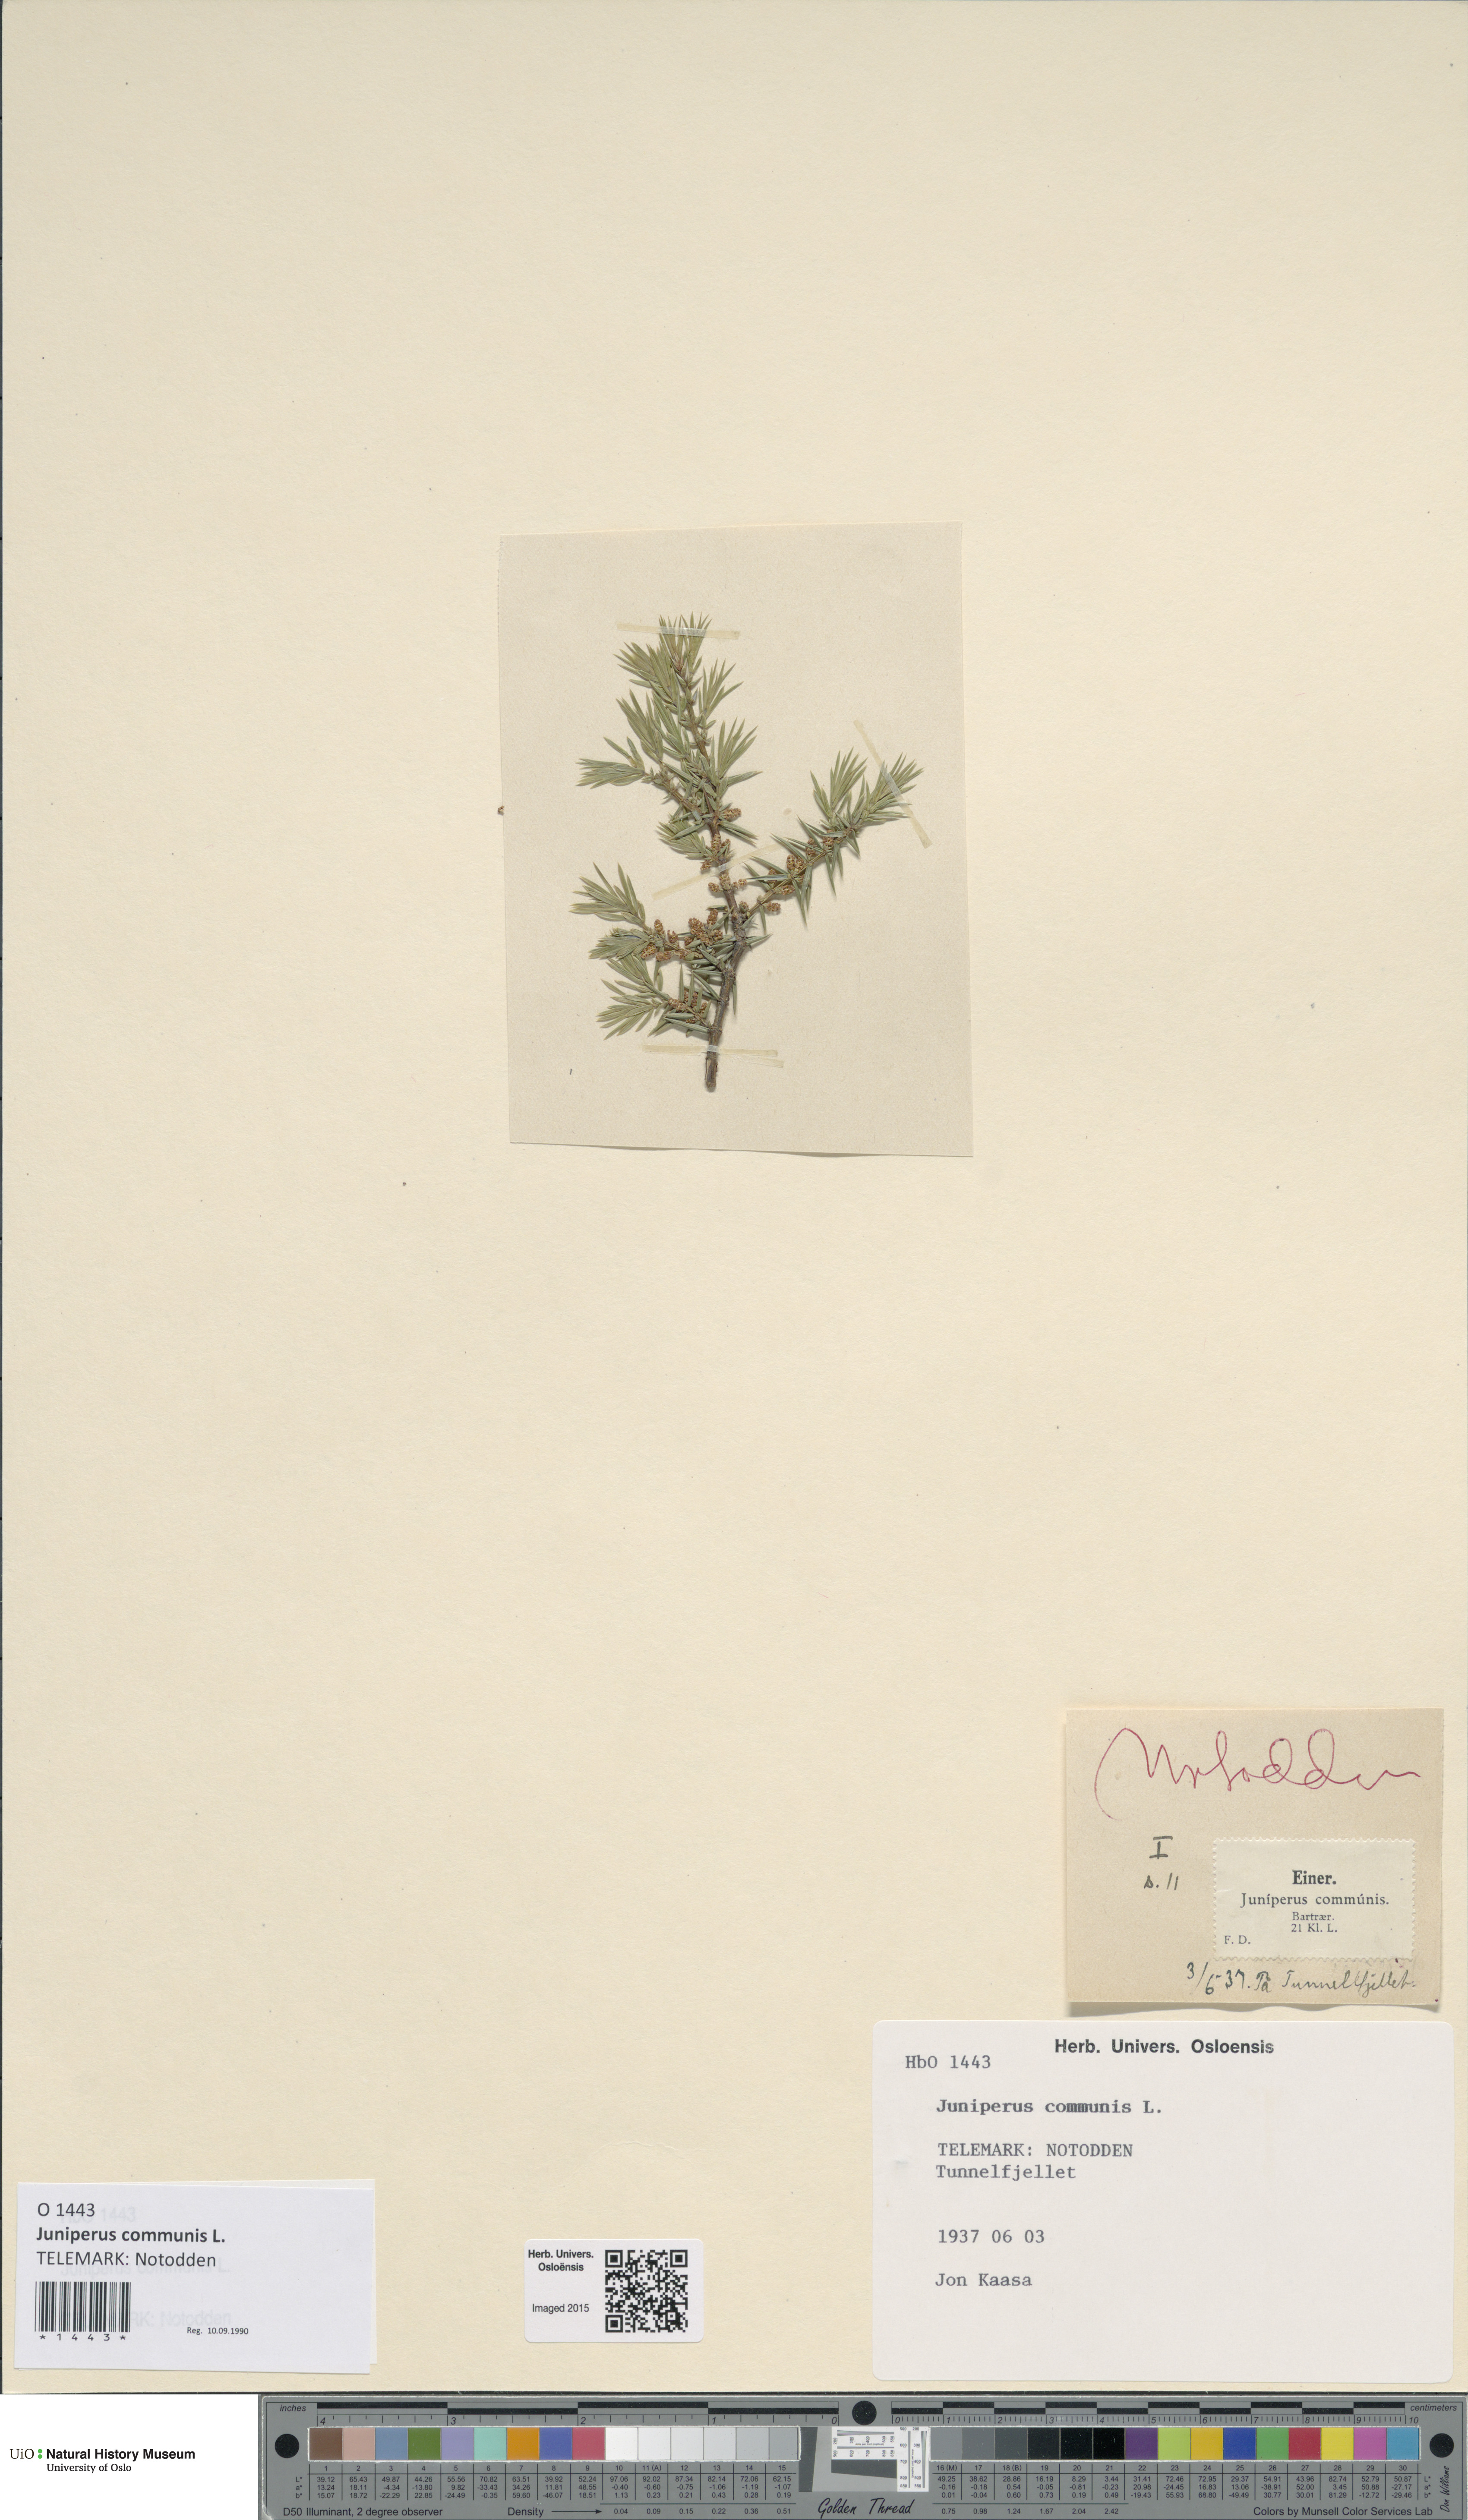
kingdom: Plantae
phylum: Tracheophyta
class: Pinopsida
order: Pinales
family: Cupressaceae
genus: Juniperus
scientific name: Juniperus communis
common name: Common juniper
